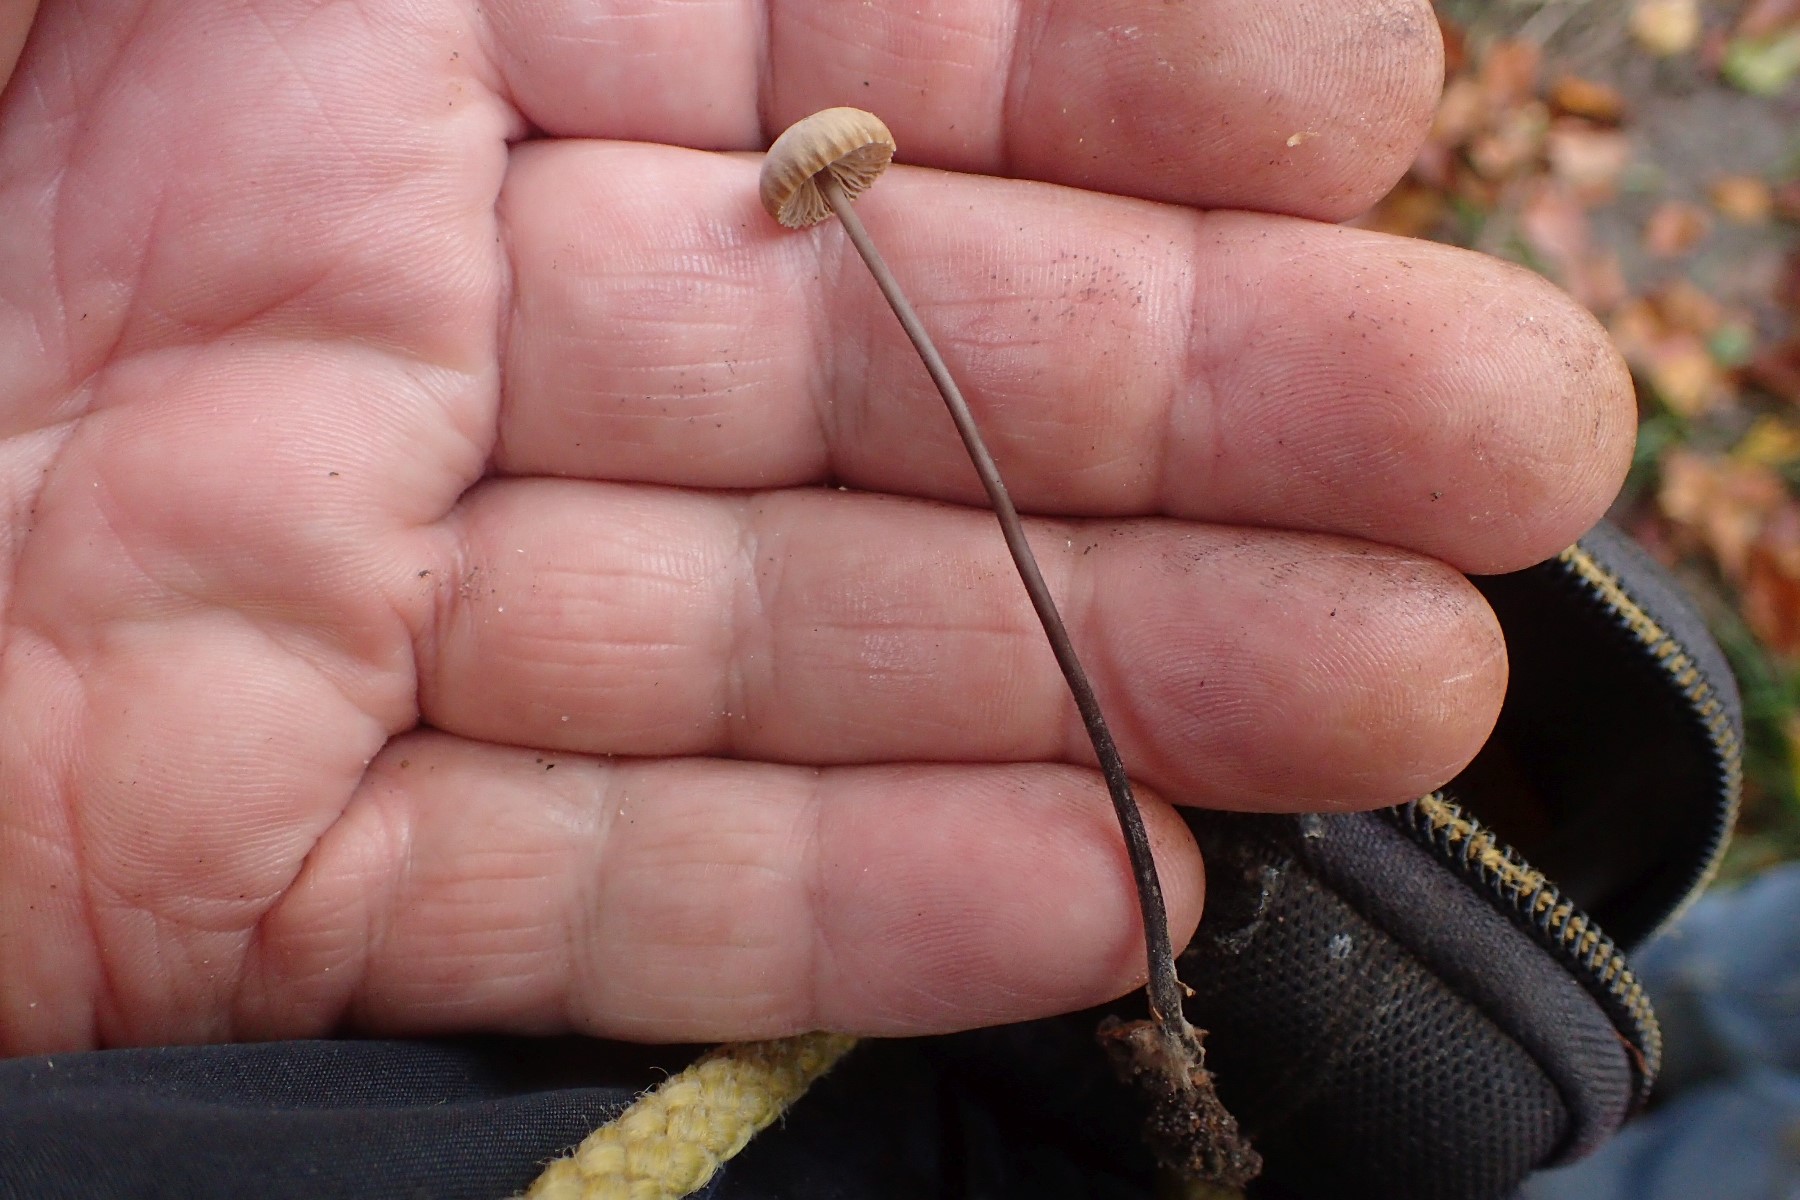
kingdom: Fungi
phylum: Basidiomycota
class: Agaricomycetes
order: Agaricales
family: Omphalotaceae
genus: Mycetinis
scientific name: Mycetinis alliaceus
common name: stor løghat
